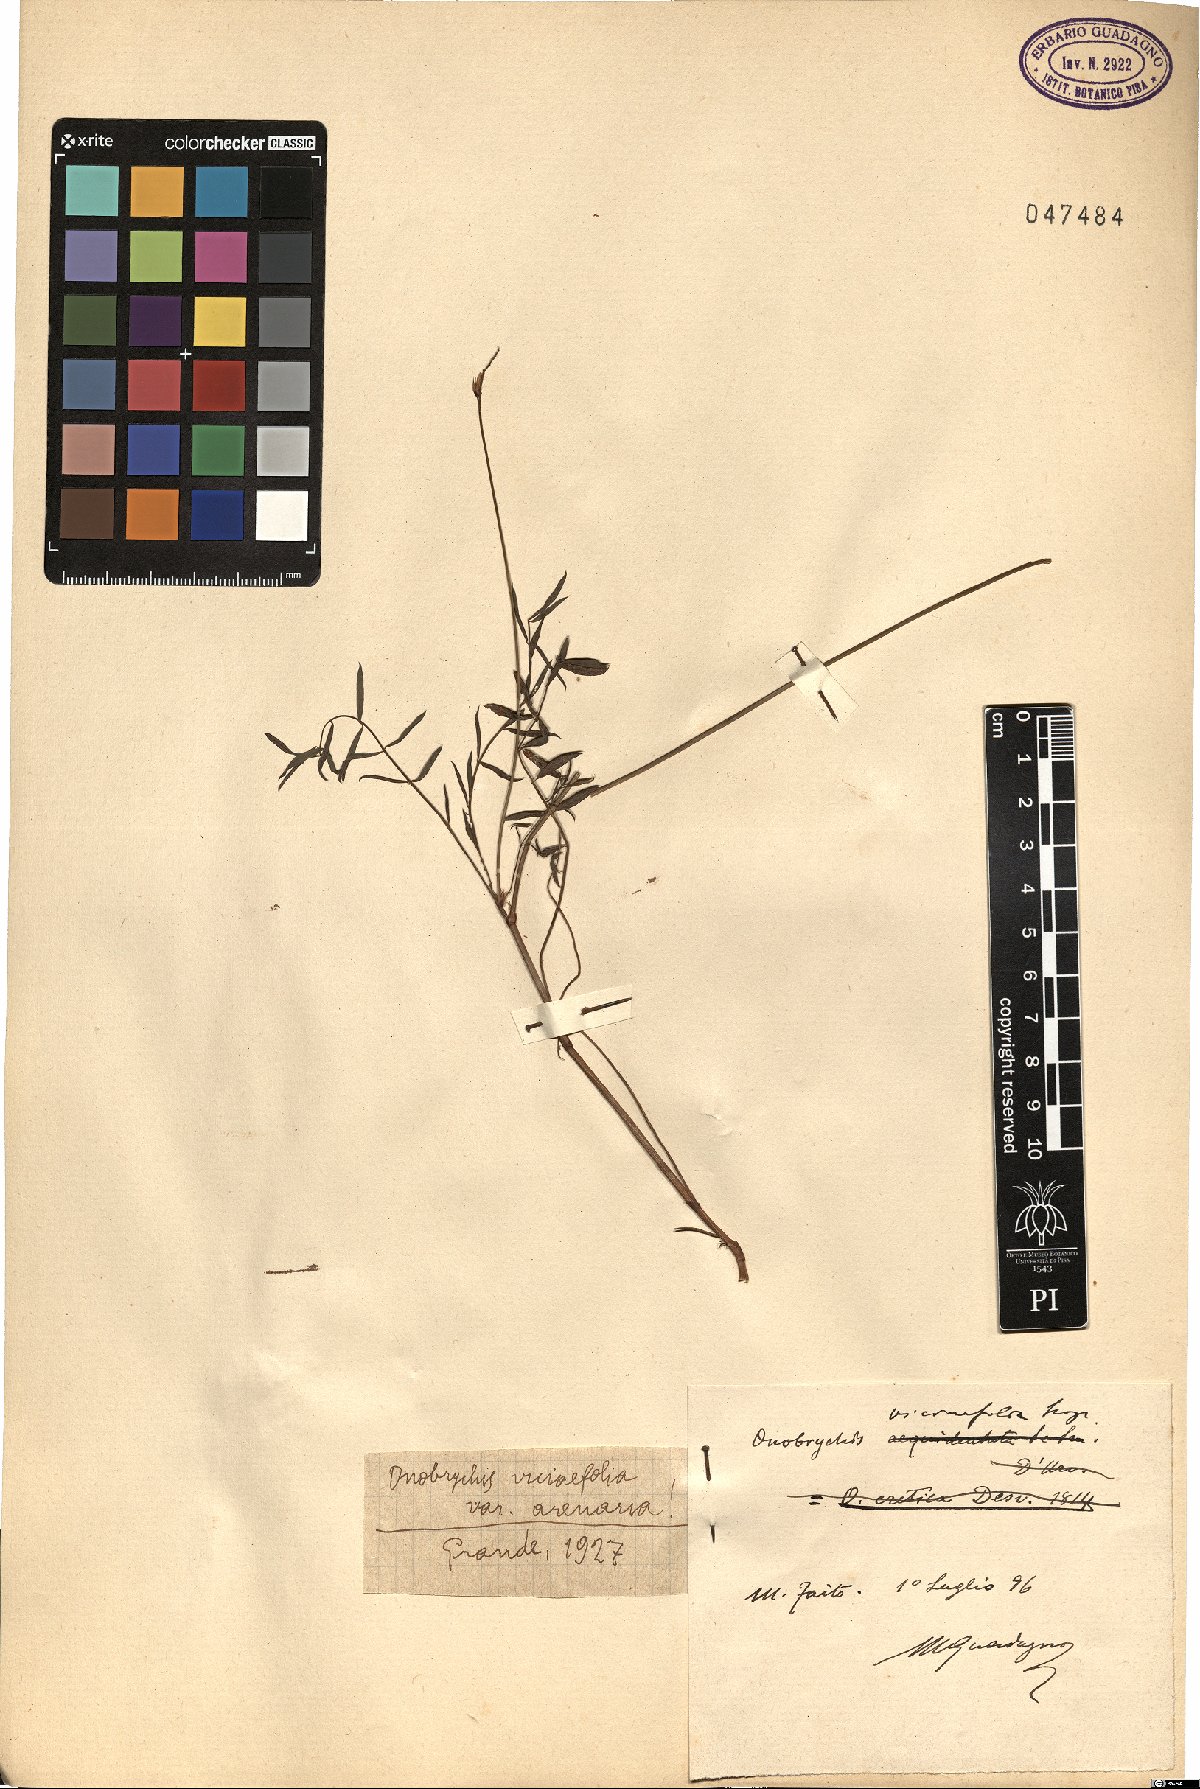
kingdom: Plantae
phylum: Tracheophyta
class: Magnoliopsida
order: Fabales
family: Fabaceae
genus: Onobrychis
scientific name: Onobrychis arenaria
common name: Sand esparcet
